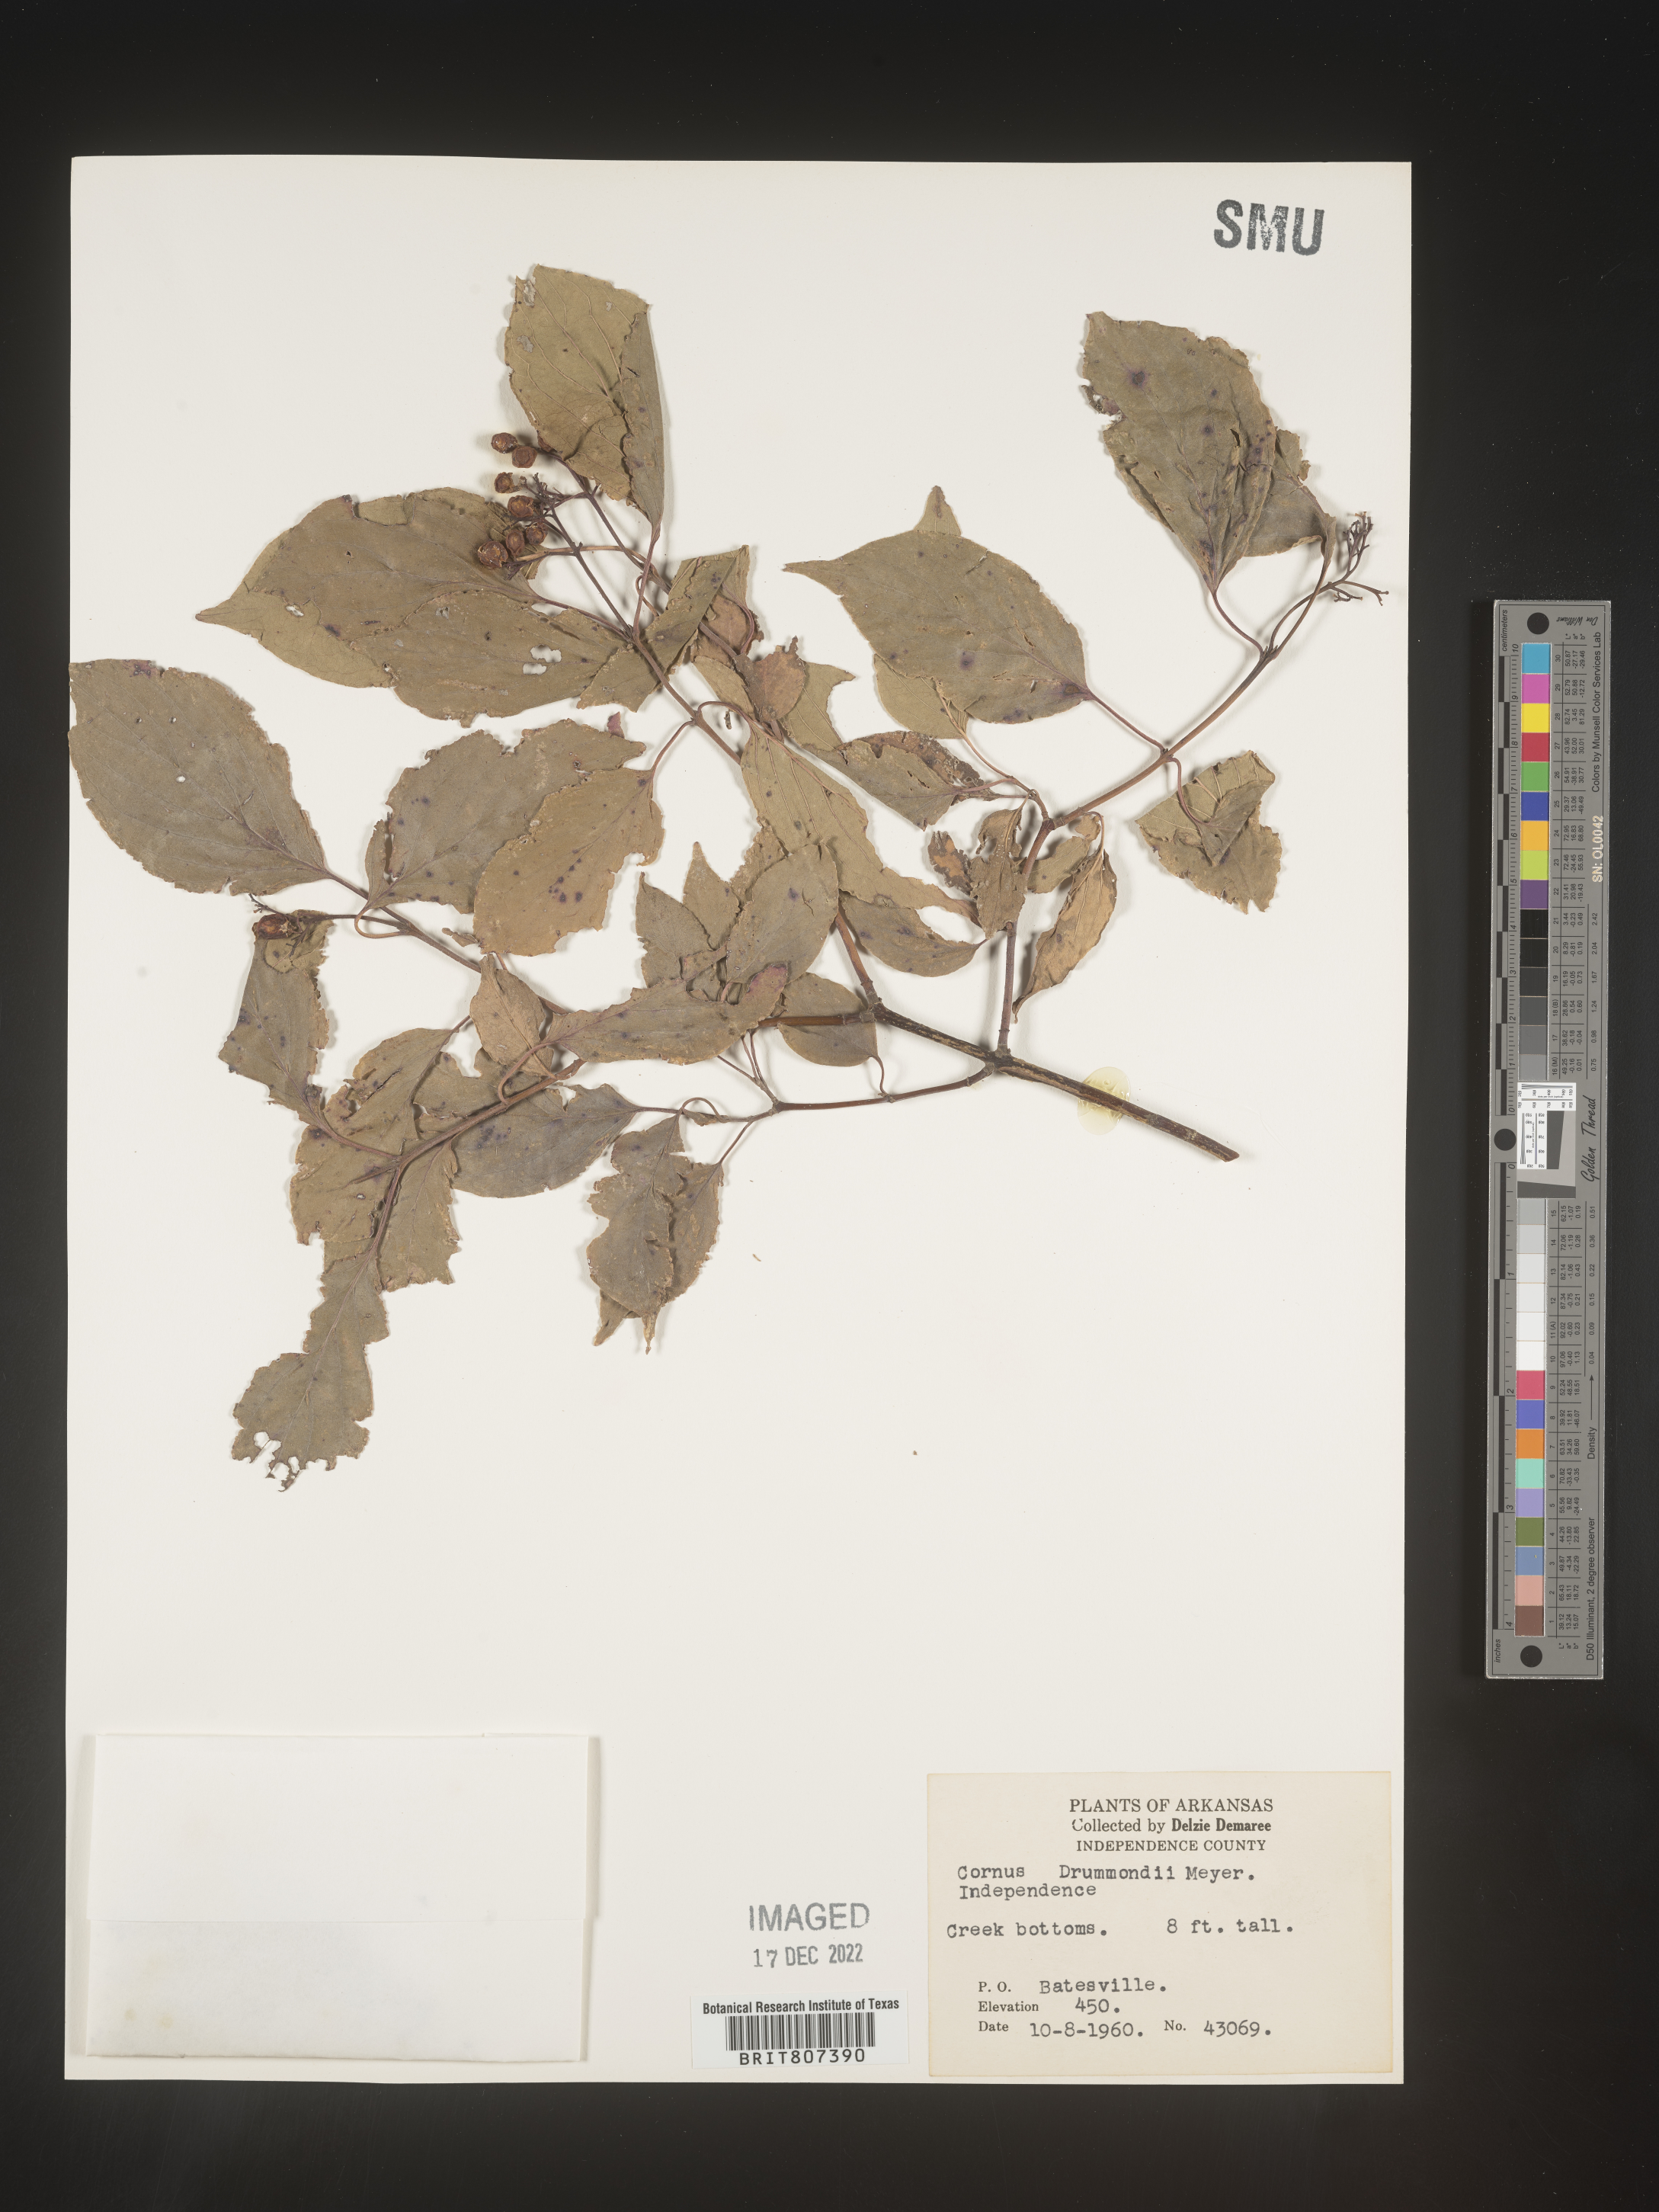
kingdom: Plantae
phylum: Tracheophyta
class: Magnoliopsida
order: Cornales
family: Cornaceae
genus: Cornus
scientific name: Cornus drummondii
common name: Rough-leaf dogwood
